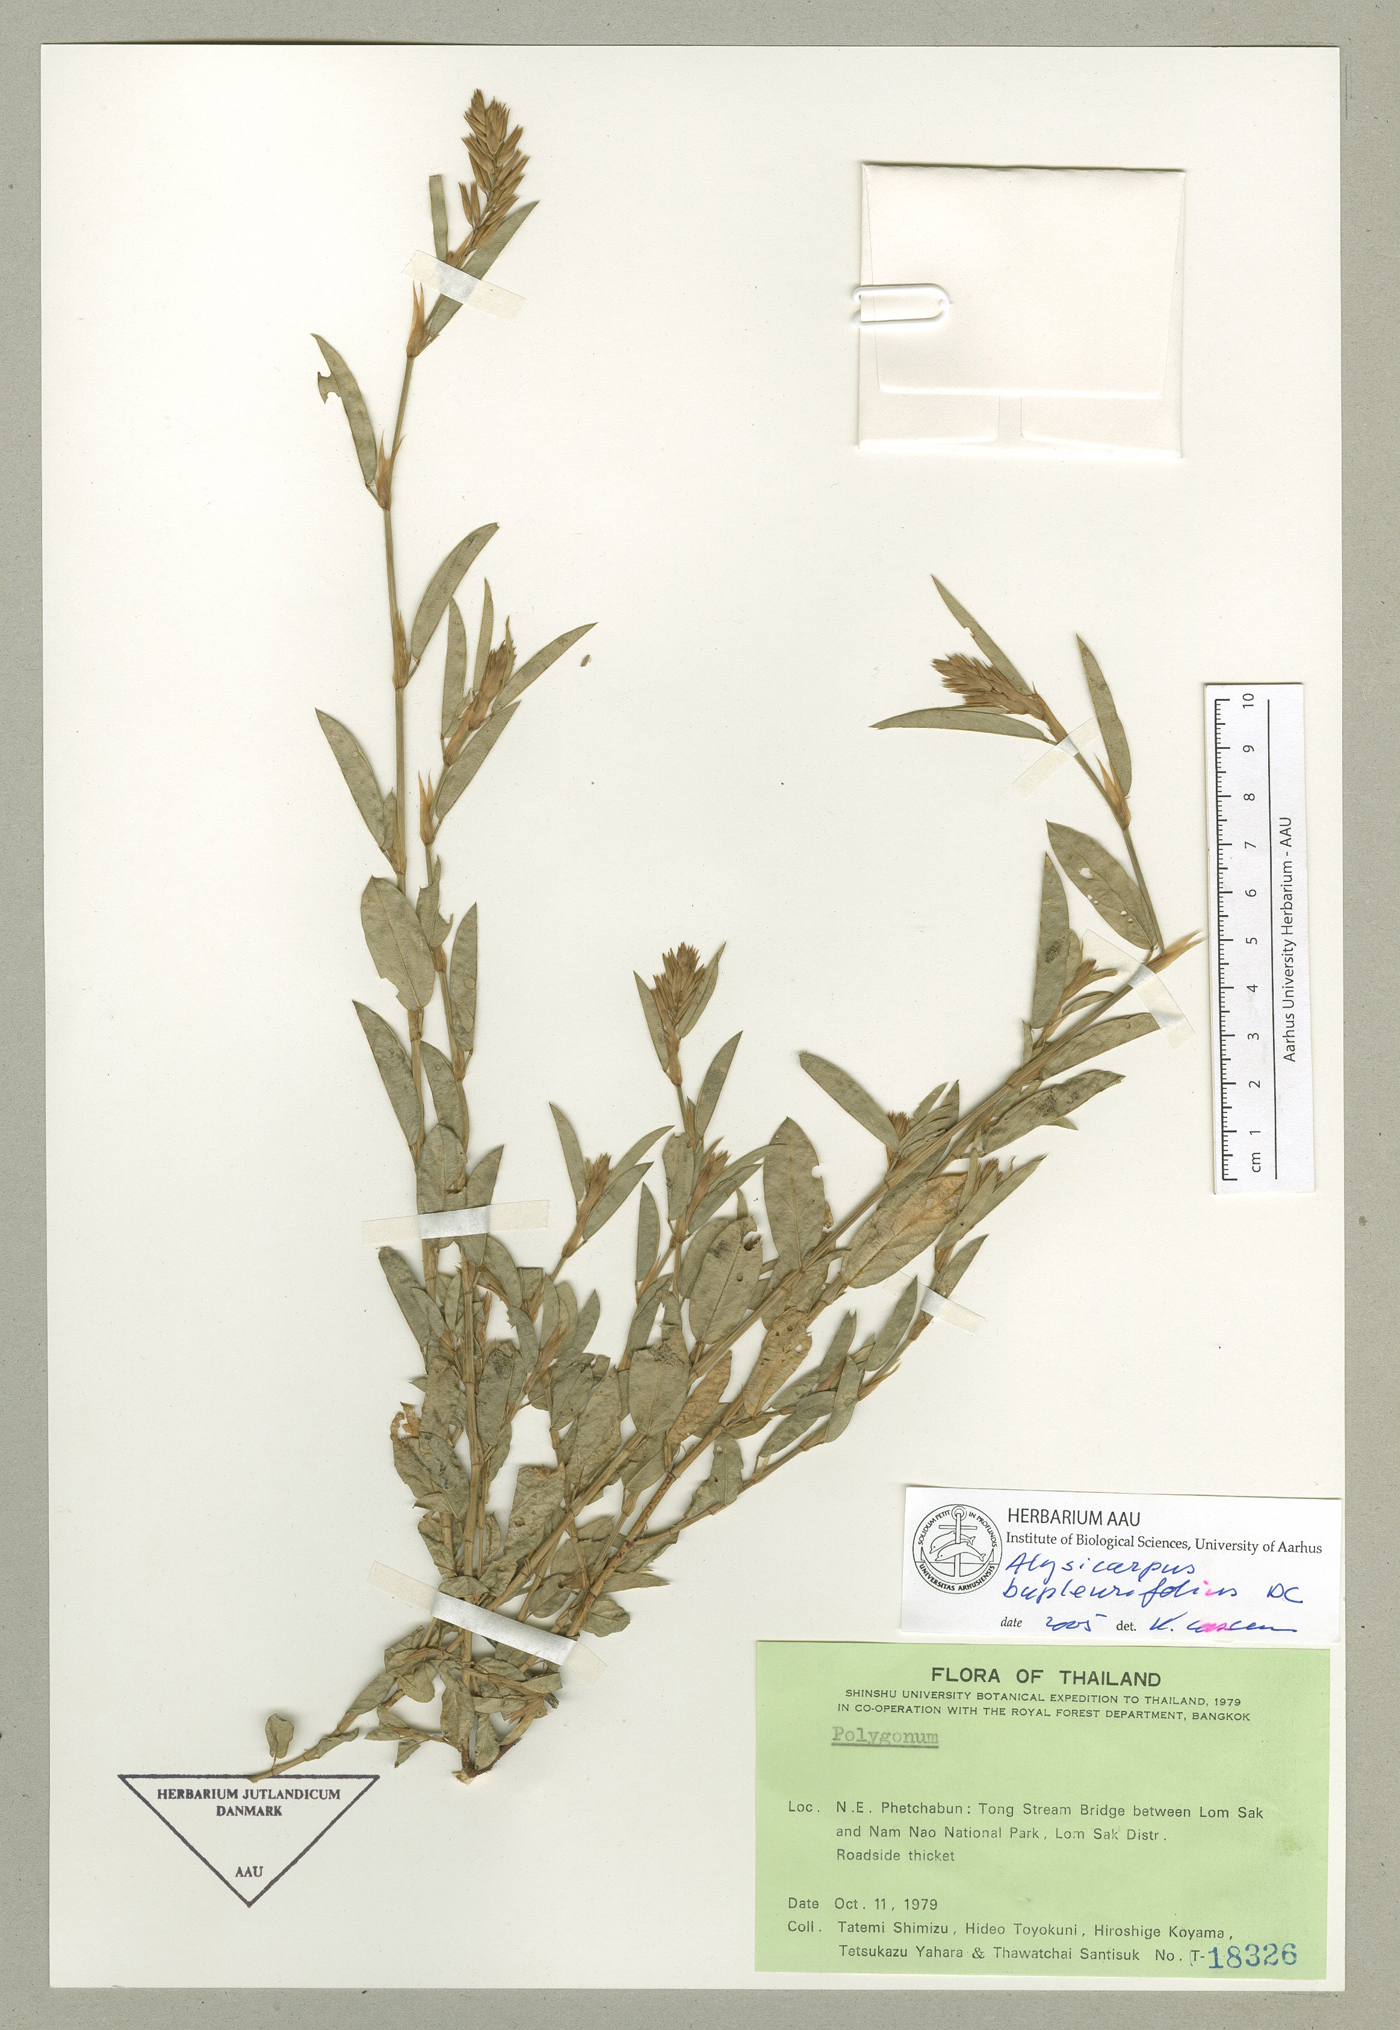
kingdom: Plantae
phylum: Tracheophyta
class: Magnoliopsida
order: Fabales
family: Fabaceae
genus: Alysicarpus
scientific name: Alysicarpus rugosus
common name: Red moneywort
